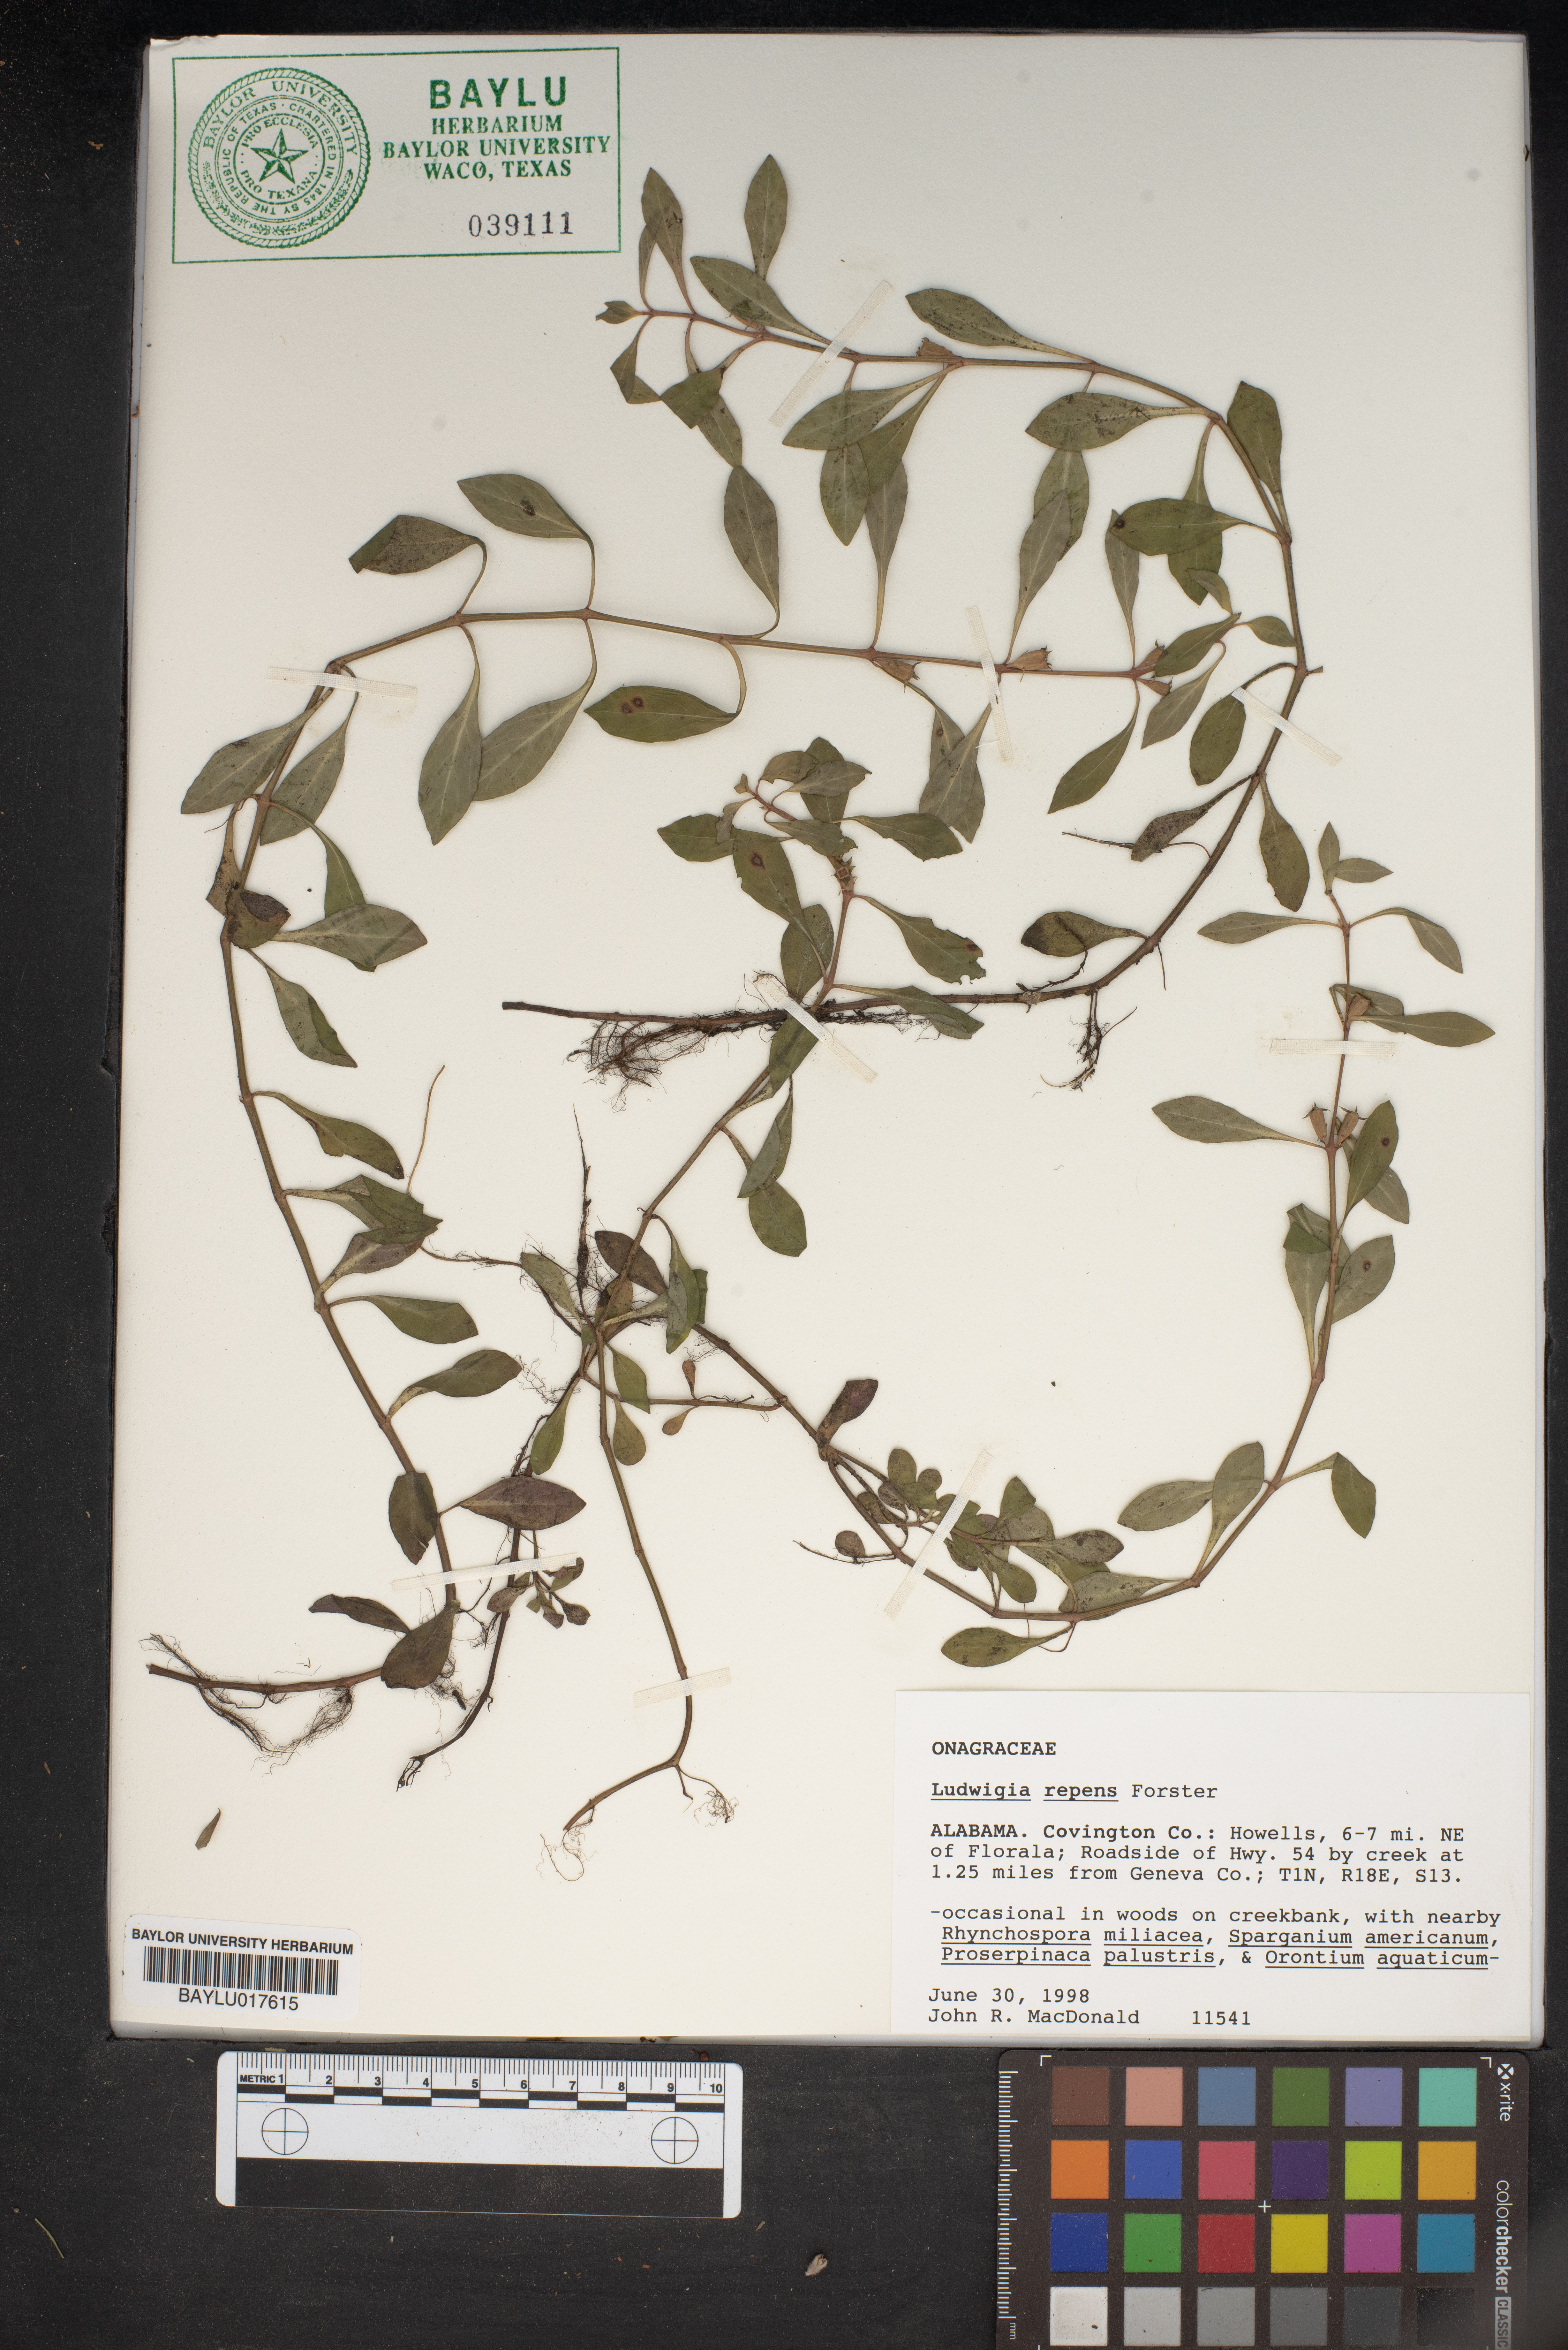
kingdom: Plantae
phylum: Tracheophyta
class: Magnoliopsida
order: Myrtales
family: Onagraceae
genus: Ludwigia
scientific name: Ludwigia repens
